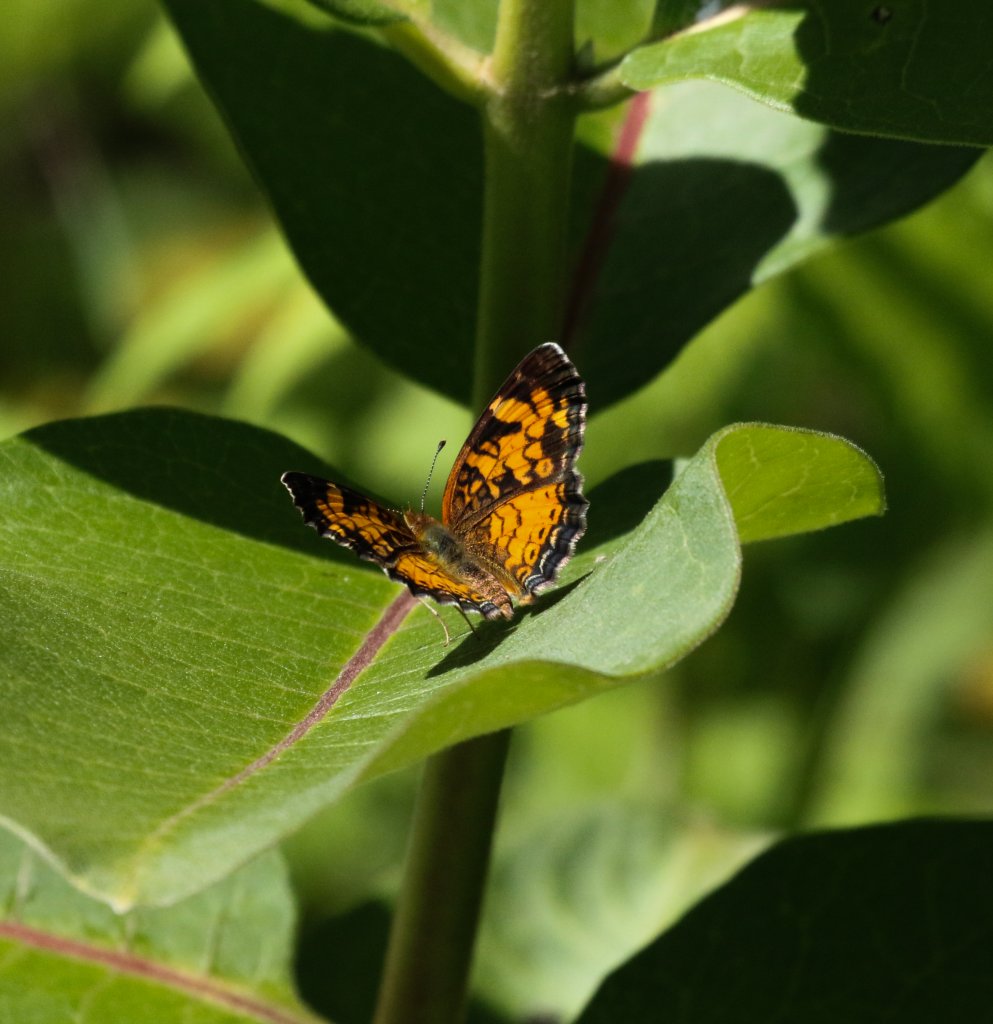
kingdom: Animalia
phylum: Arthropoda
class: Insecta
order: Lepidoptera
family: Nymphalidae
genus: Phyciodes
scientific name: Phyciodes tharos
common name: Northern Crescent
